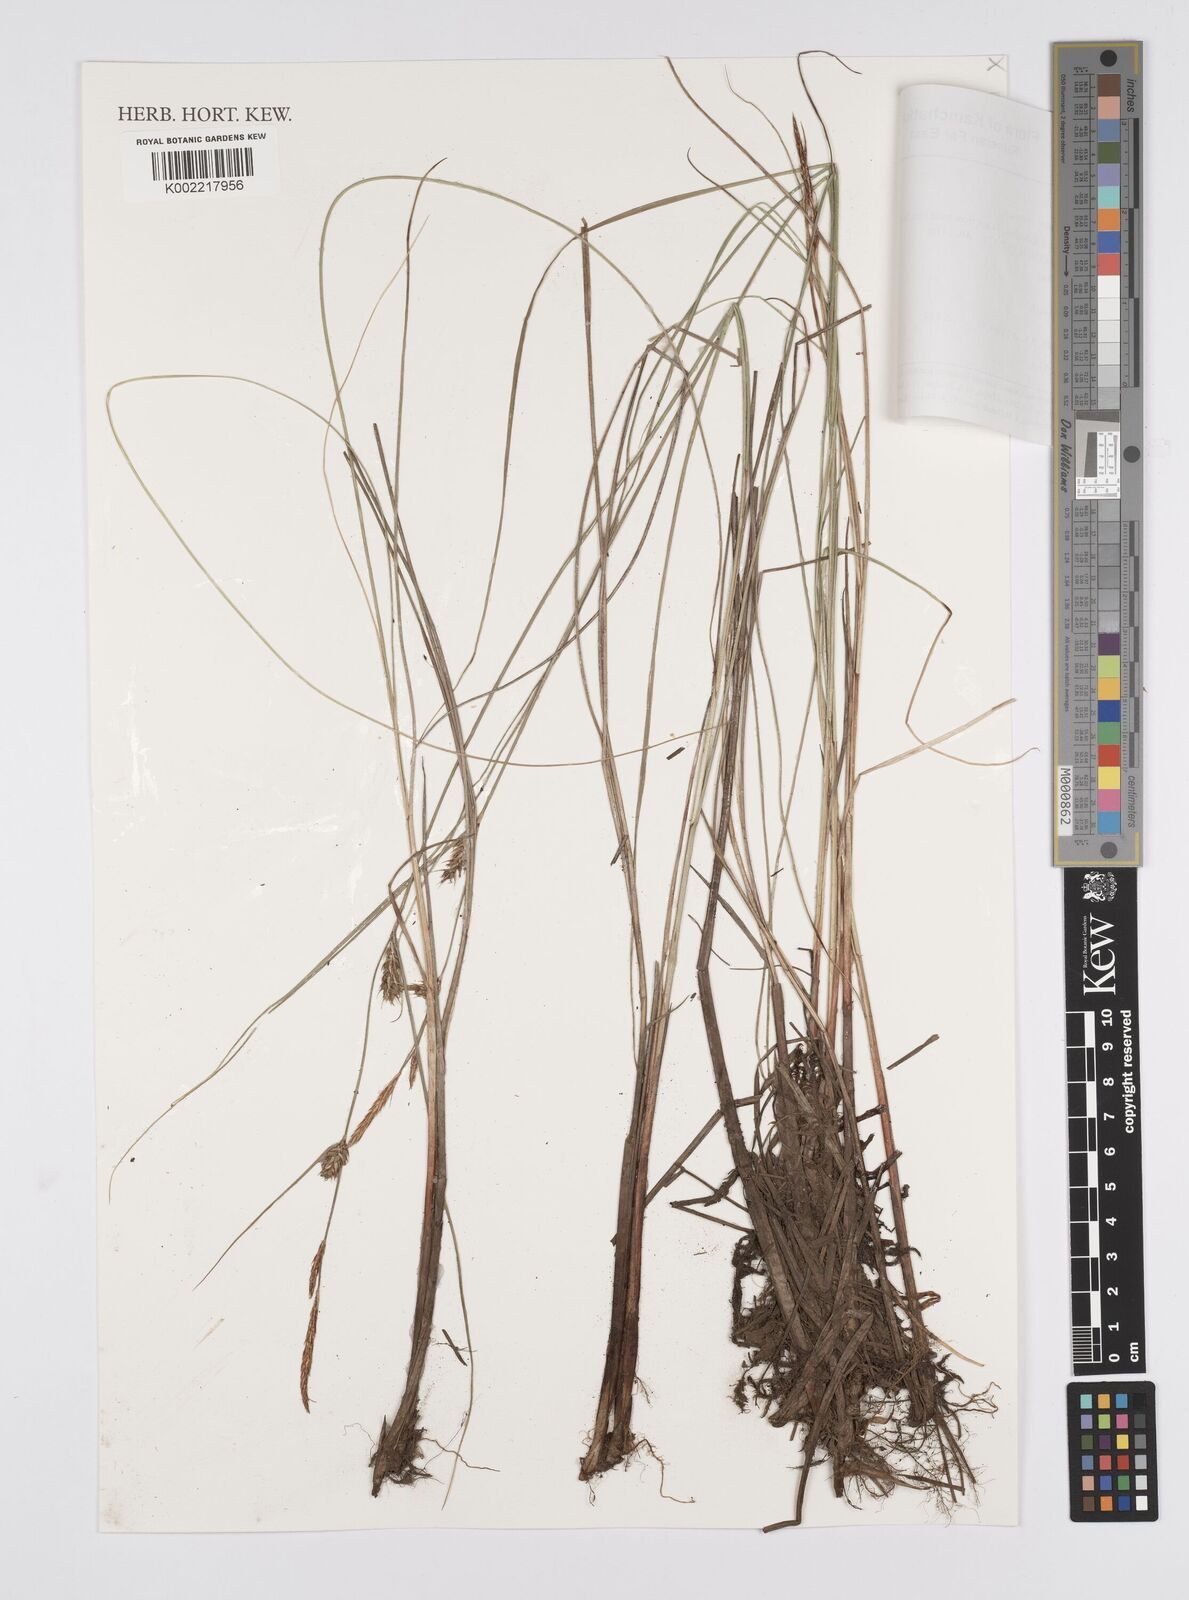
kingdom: Plantae
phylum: Tracheophyta
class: Liliopsida
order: Poales
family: Cyperaceae
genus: Carex
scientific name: Carex diandra
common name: Lesser tussock-sedge
